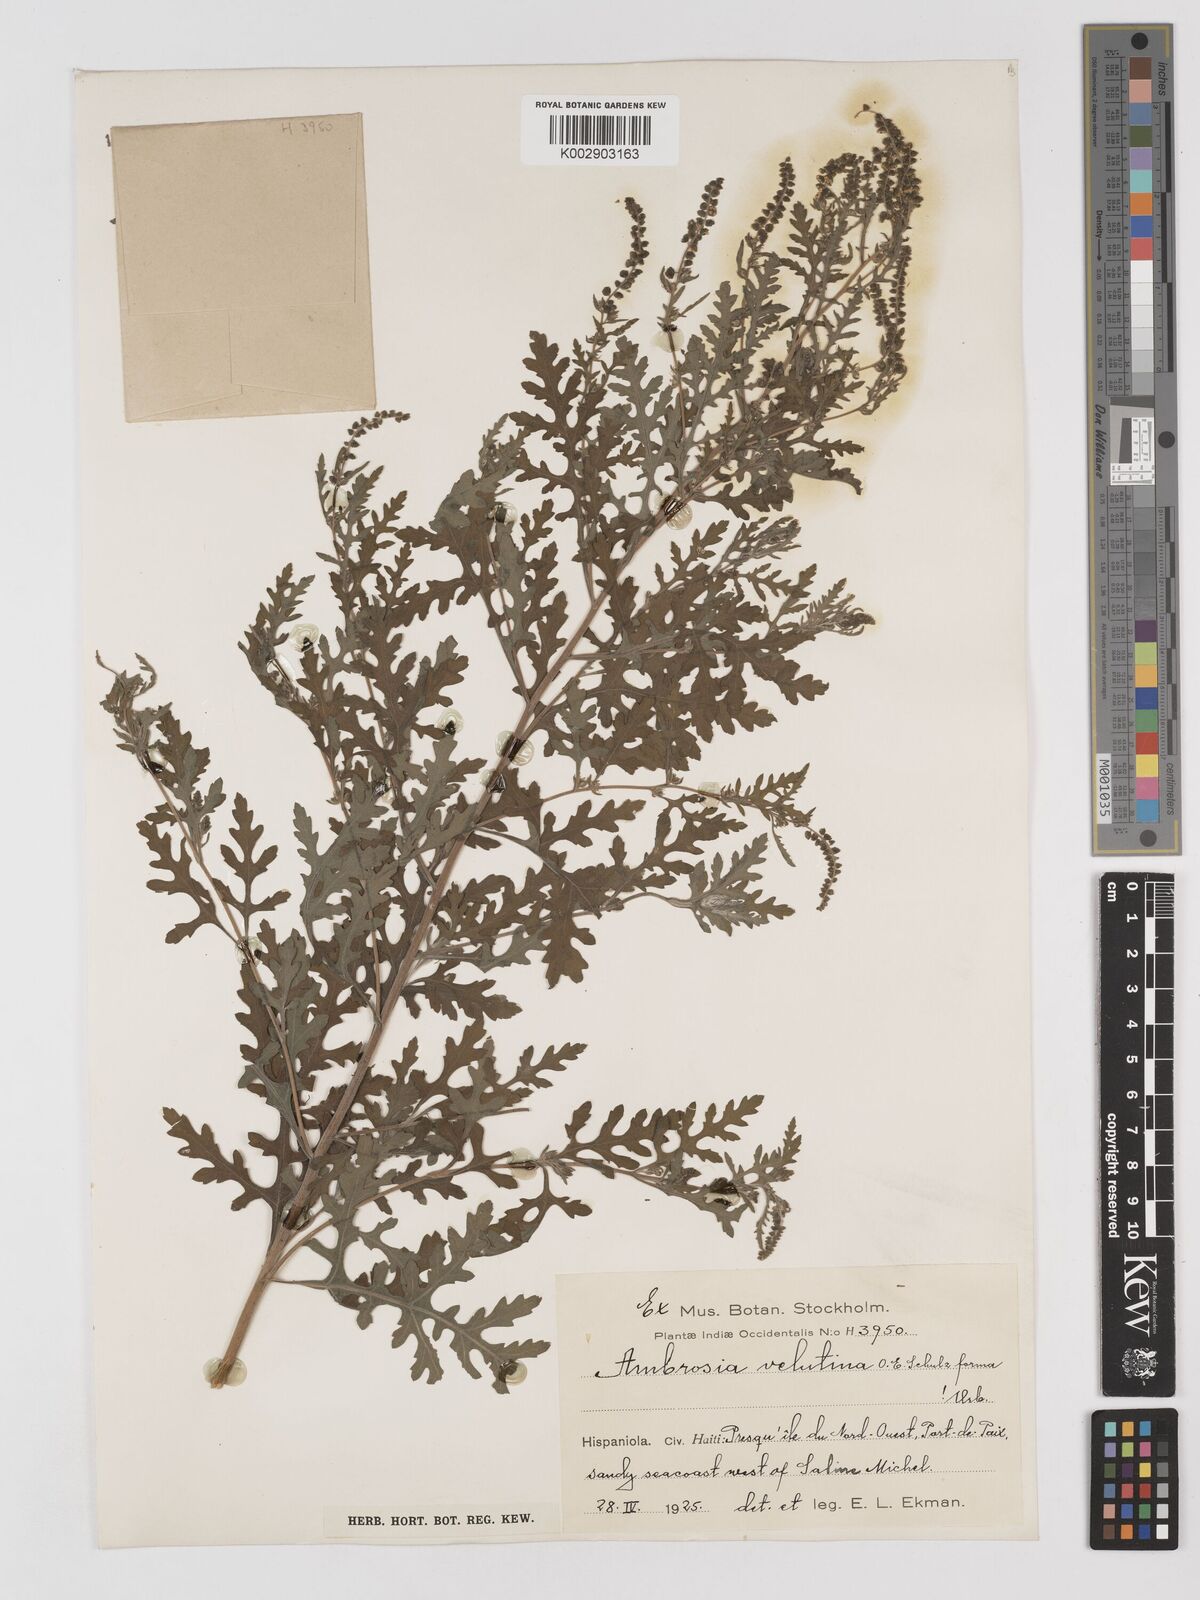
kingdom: Plantae
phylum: Tracheophyta
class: Magnoliopsida
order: Asterales
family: Asteraceae
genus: Ambrosia
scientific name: Ambrosia velutina
